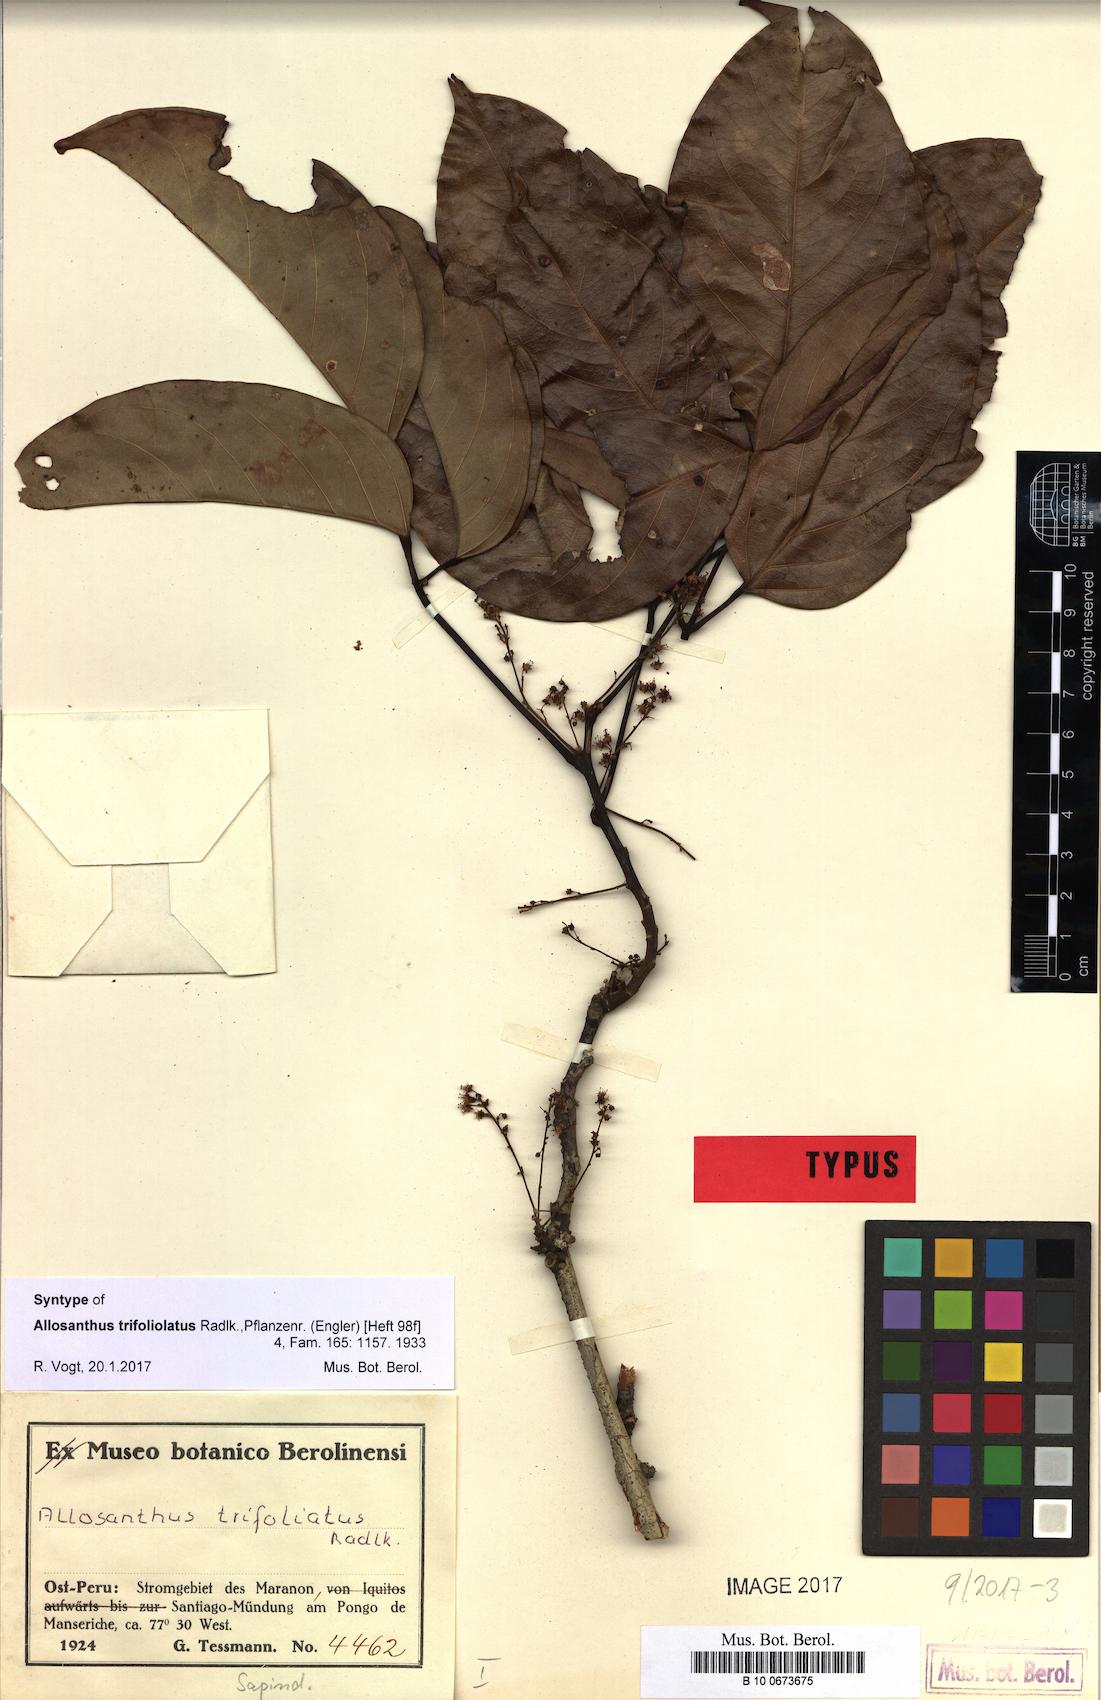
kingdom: Plantae
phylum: Tracheophyta
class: Magnoliopsida
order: Sapindales
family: Sapindaceae
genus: Thinouia
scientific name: Thinouia trifoliolata
